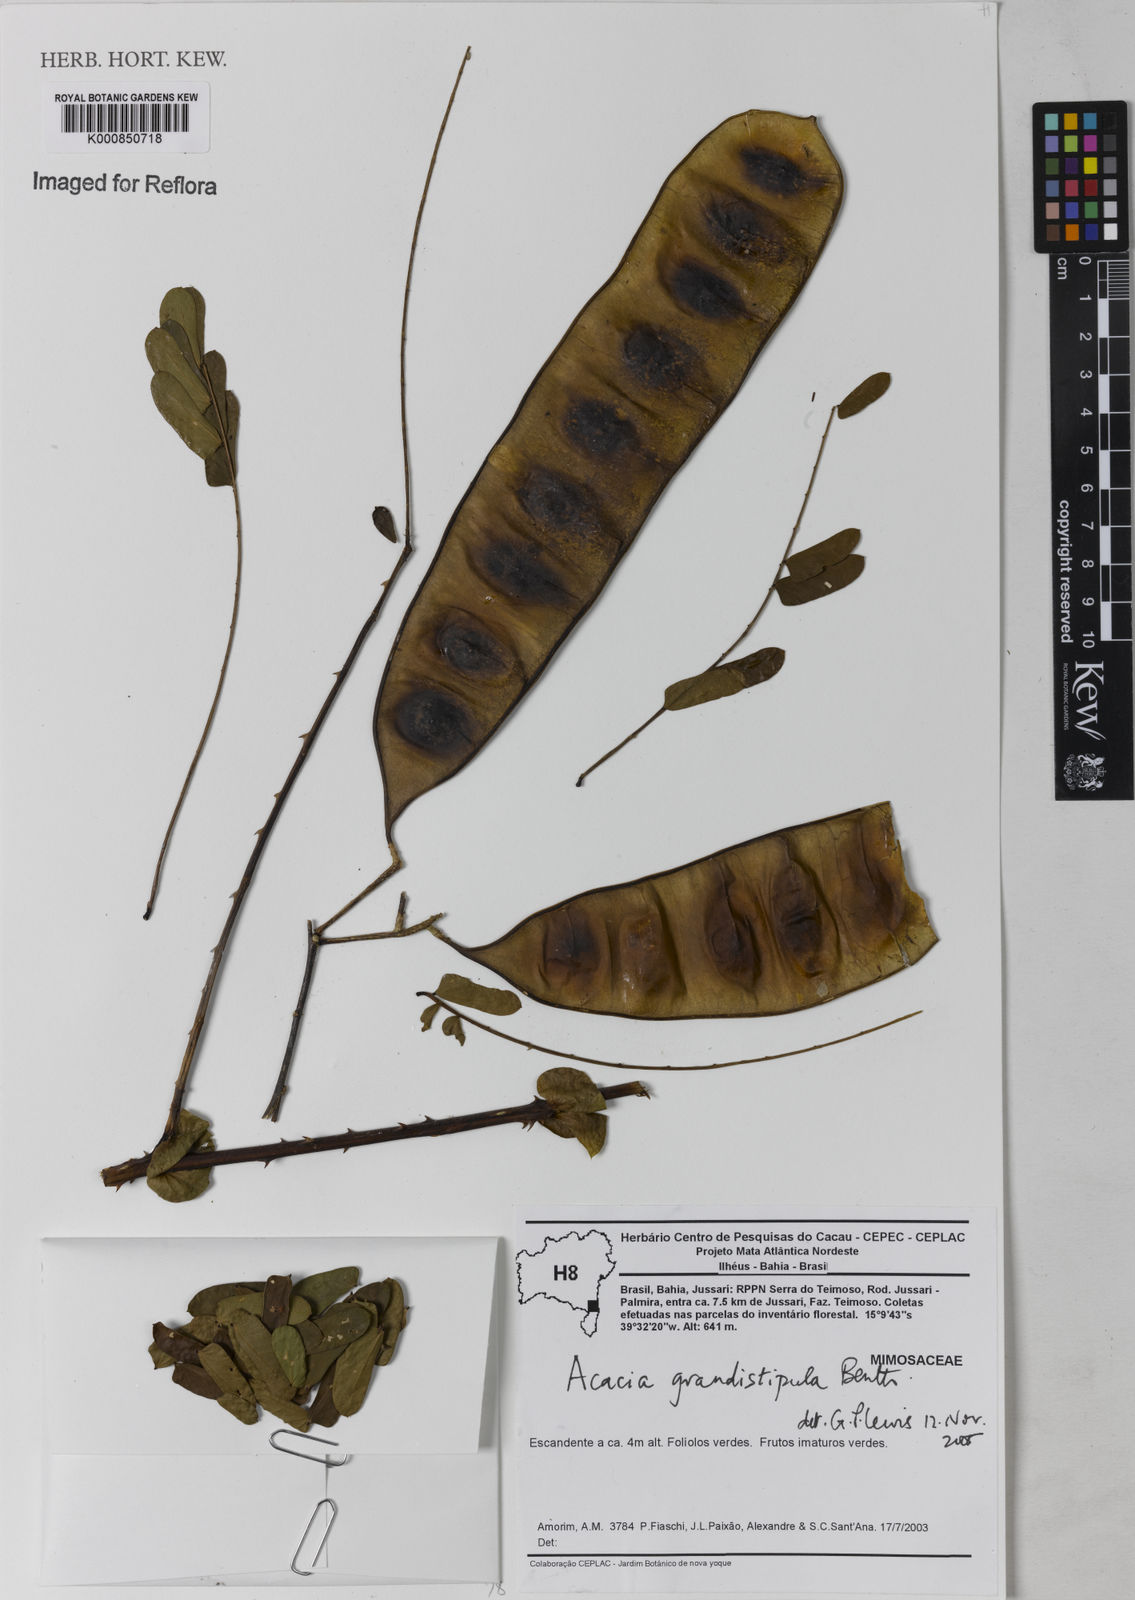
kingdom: Plantae
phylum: Tracheophyta
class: Magnoliopsida
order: Fabales
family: Fabaceae
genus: Senegalia
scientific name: Senegalia grandistipula
